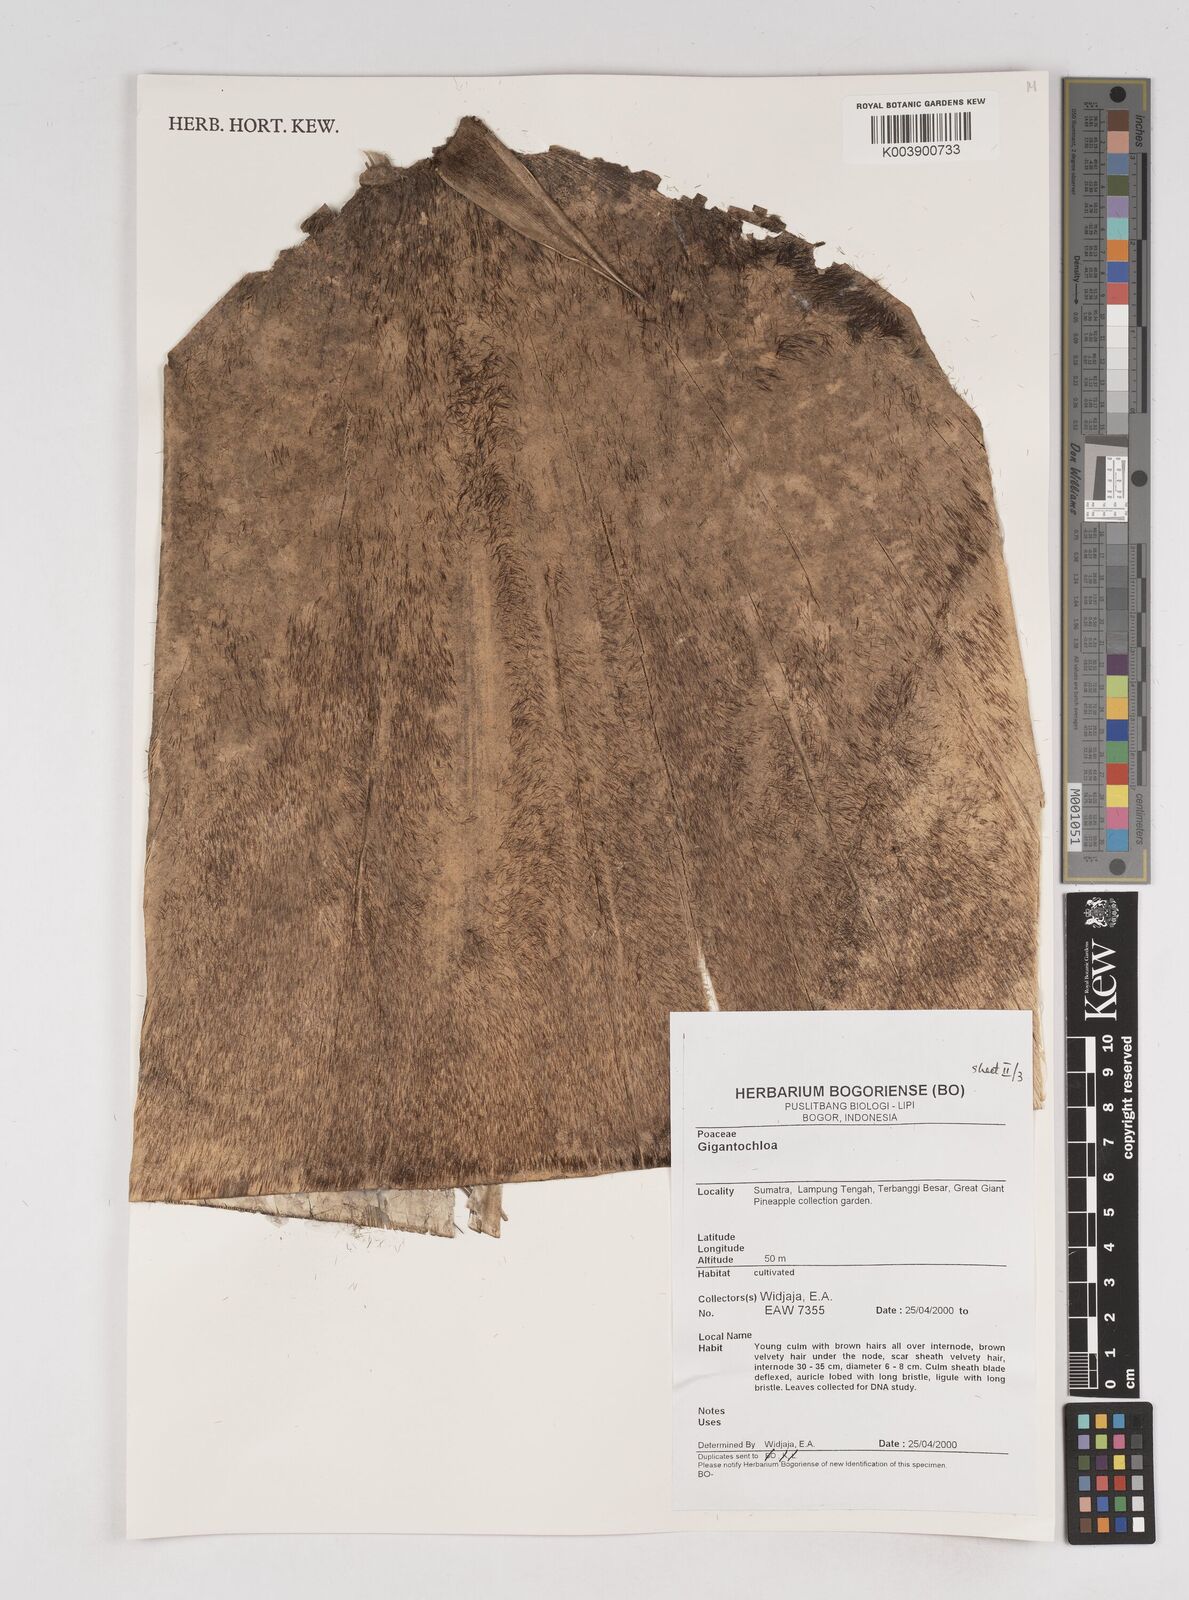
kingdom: Plantae
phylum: Tracheophyta
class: Liliopsida
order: Poales
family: Poaceae
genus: Gigantochloa
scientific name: Gigantochloa
